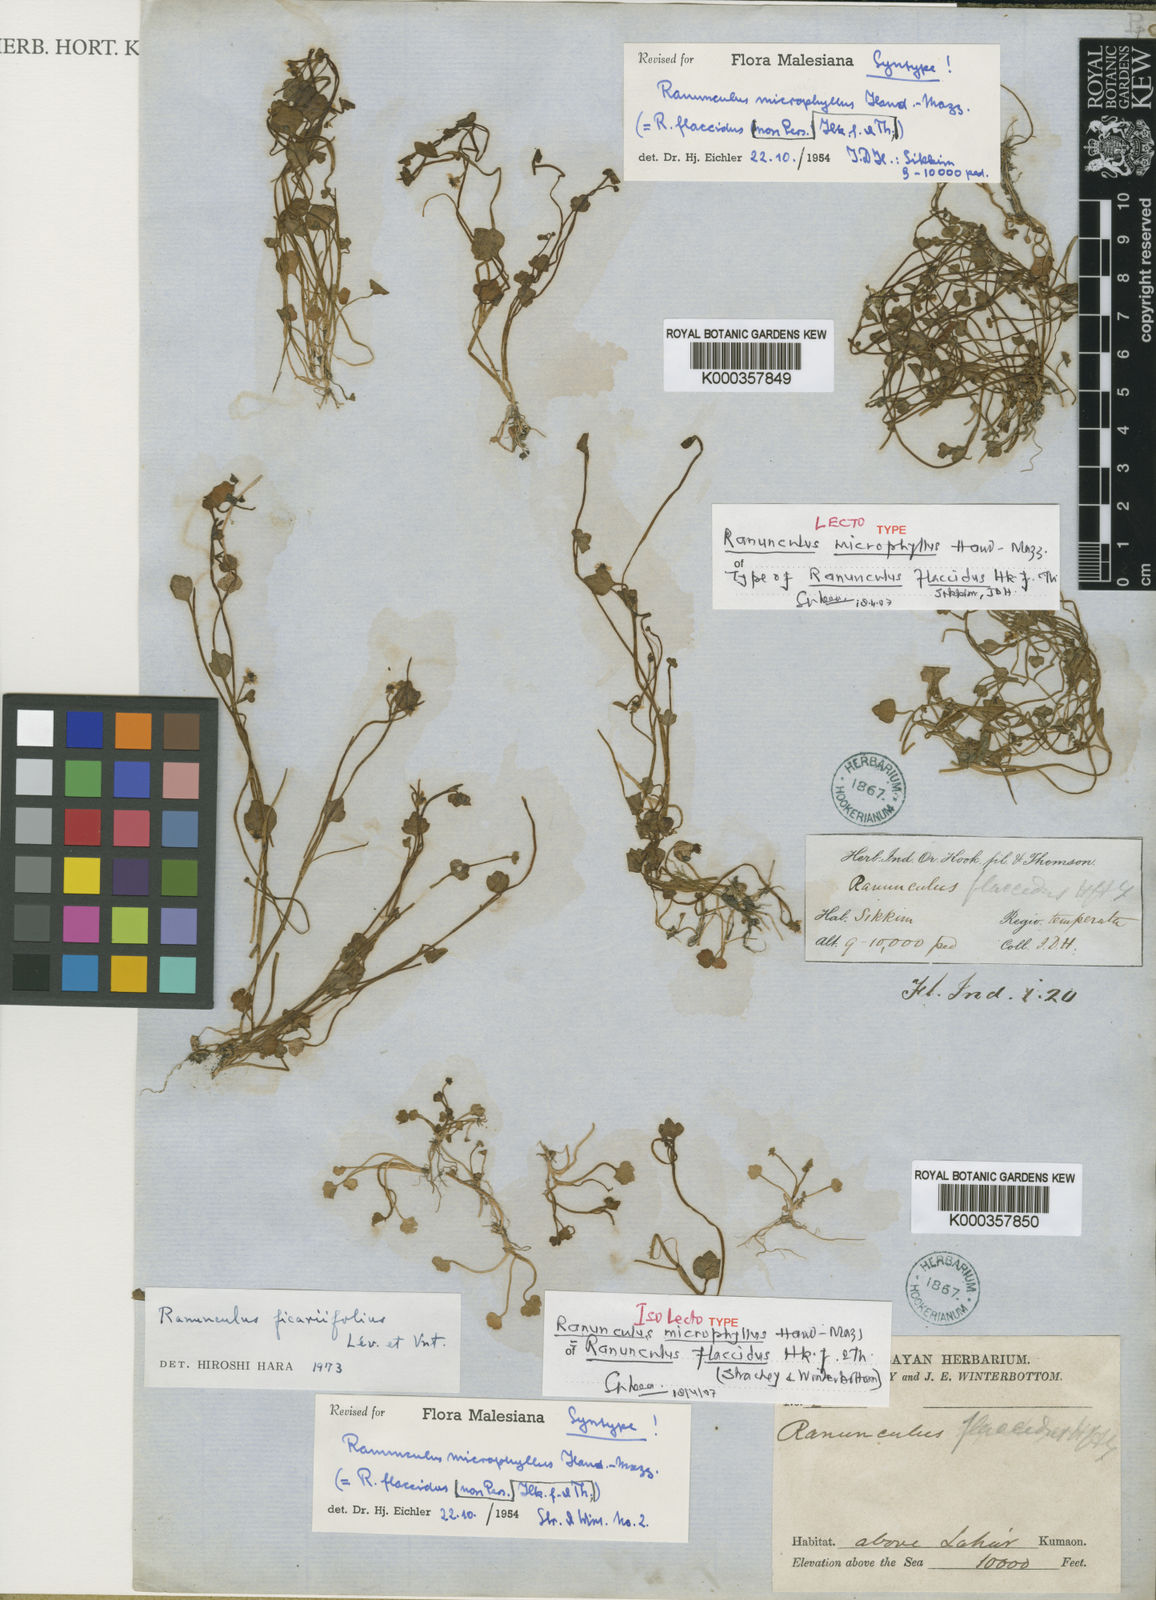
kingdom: Plantae
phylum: Tracheophyta
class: Magnoliopsida
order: Ranunculales
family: Ranunculaceae
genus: Ranunculus
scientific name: Ranunculus
